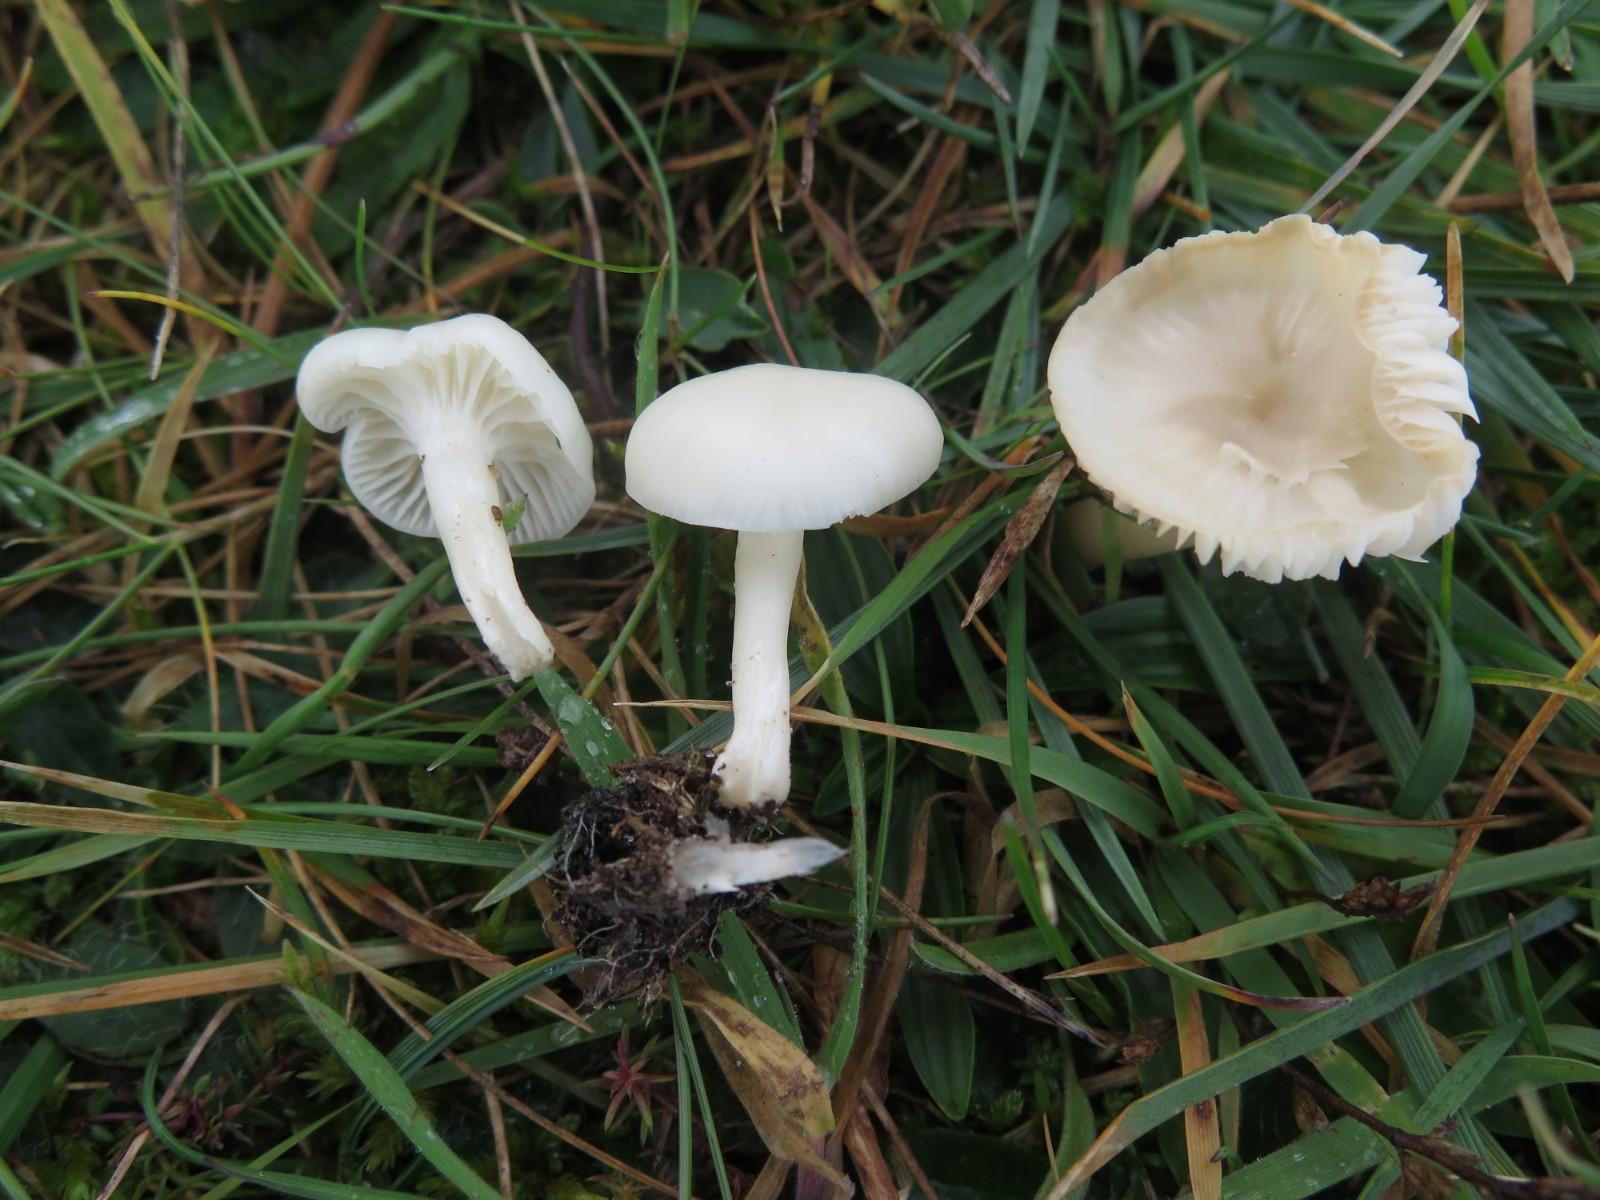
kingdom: Fungi
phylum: Basidiomycota
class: Agaricomycetes
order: Agaricales
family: Hygrophoraceae
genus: Cuphophyllus
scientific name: Cuphophyllus virgineus
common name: snehvid vokshat
